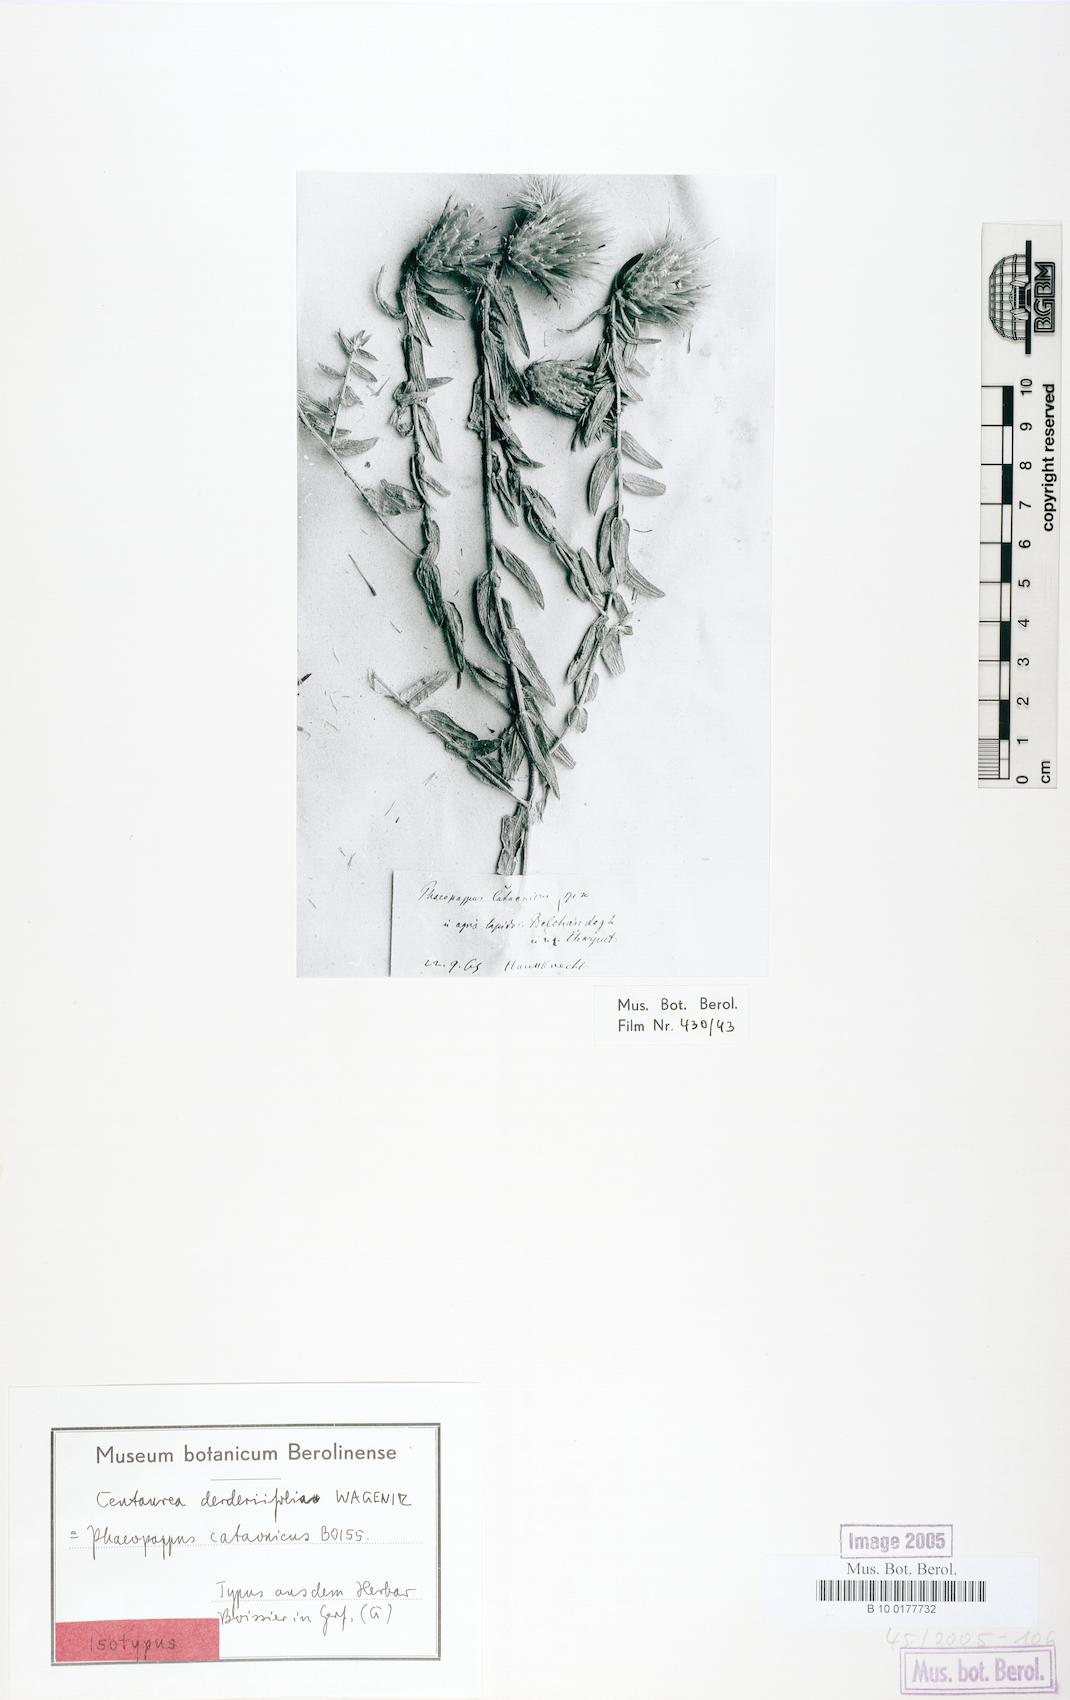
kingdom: Plantae
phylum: Tracheophyta
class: Magnoliopsida
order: Asterales
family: Asteraceae
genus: Centaurea
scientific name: Centaurea derderiifolia
